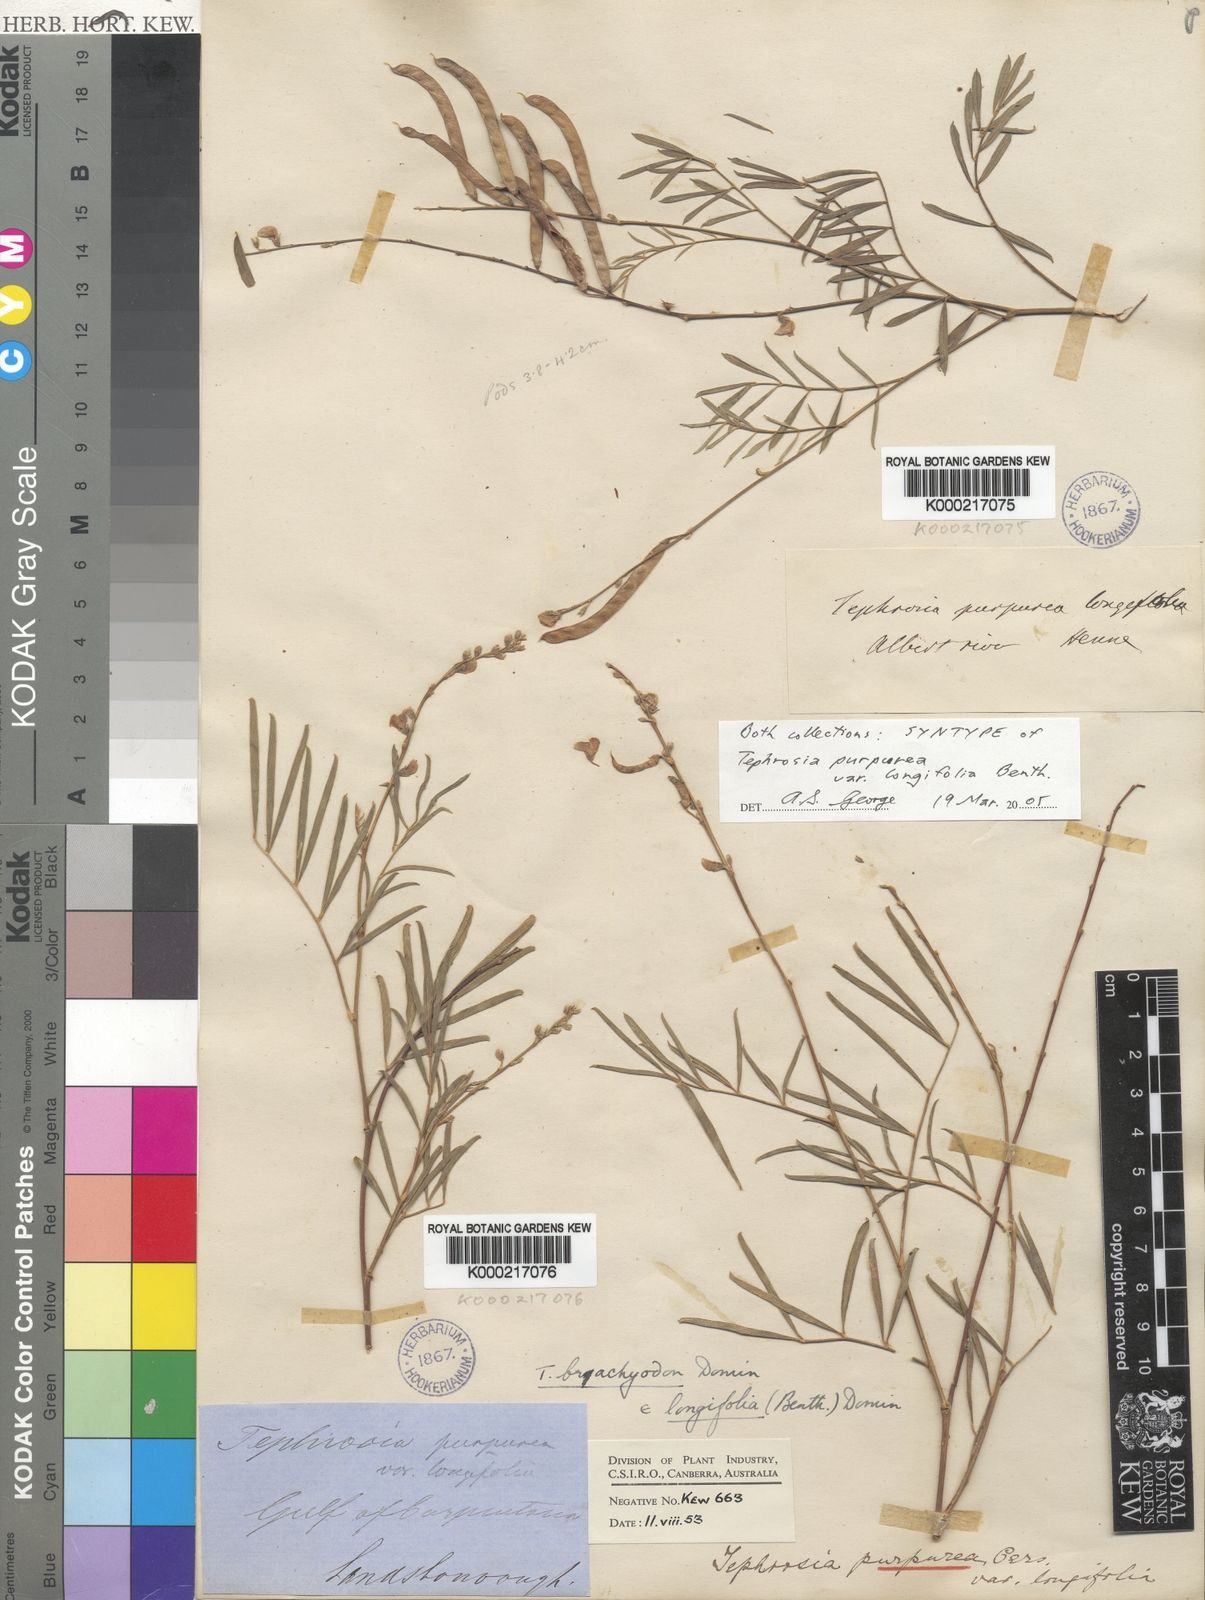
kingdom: Plantae
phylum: Tracheophyta
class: Magnoliopsida
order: Fabales
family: Fabaceae
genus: Tephrosia
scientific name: Tephrosia brachyodon
